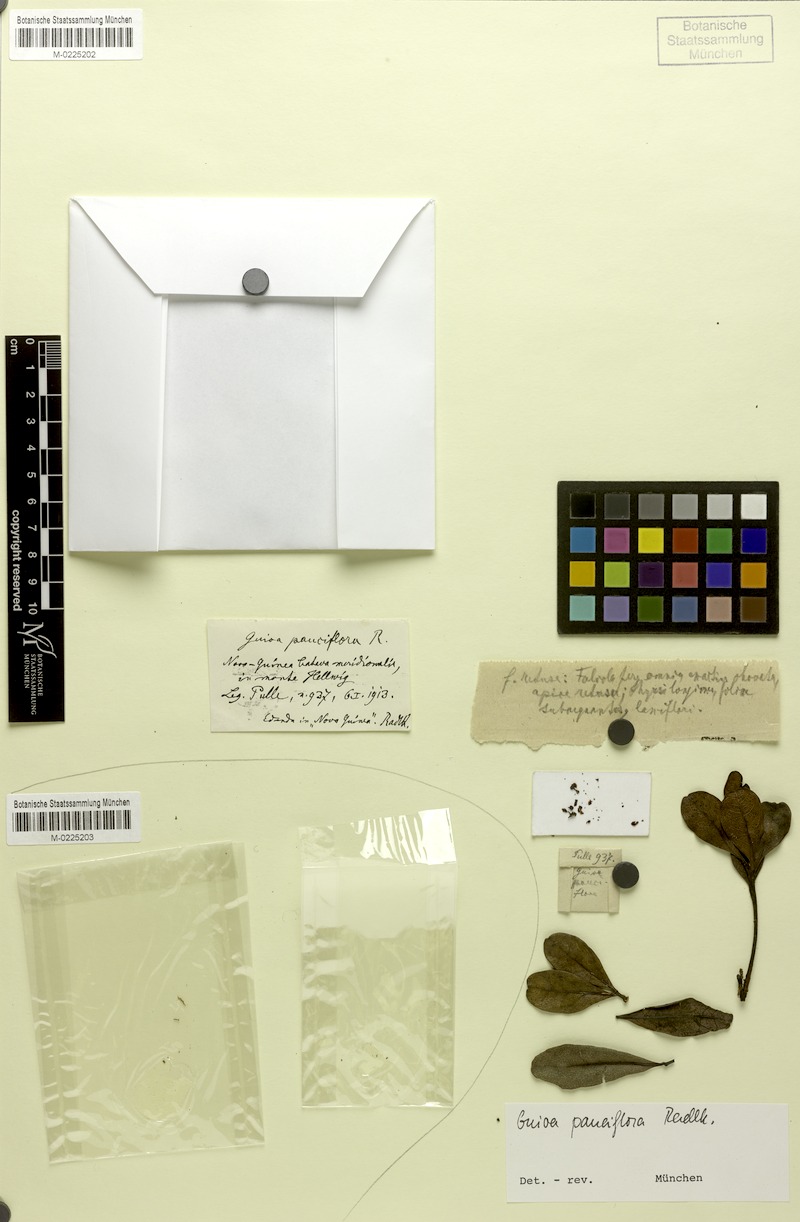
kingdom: Plantae
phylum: Tracheophyta
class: Magnoliopsida
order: Sapindales
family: Sapindaceae
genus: Guioa
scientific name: Guioa pauciflora
